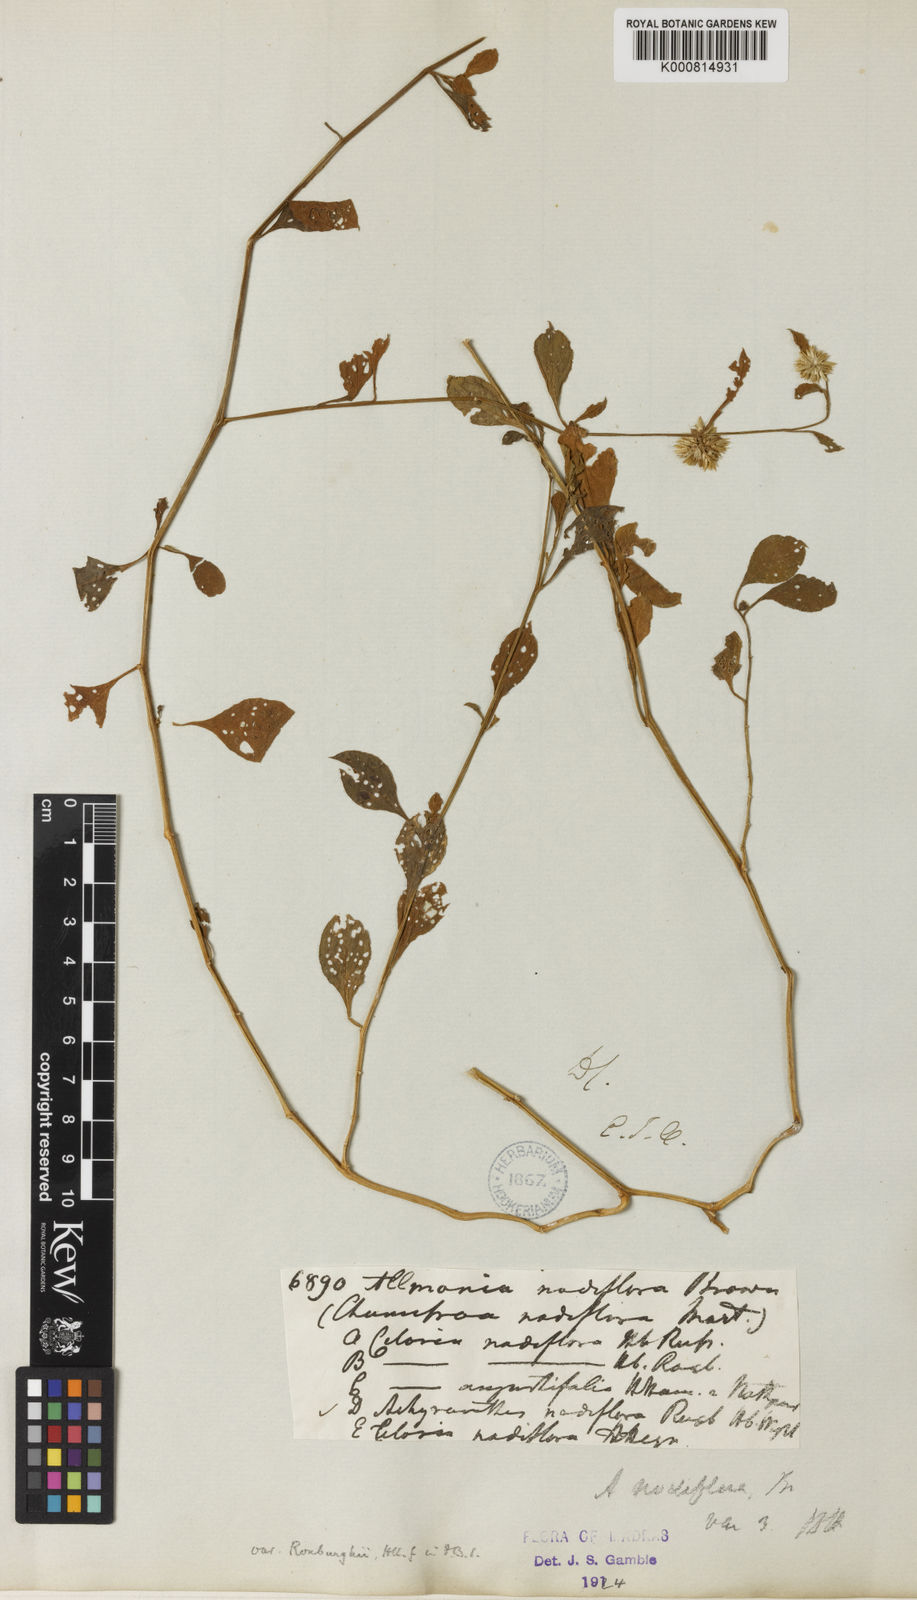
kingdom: Plantae
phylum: Tracheophyta
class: Magnoliopsida
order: Caryophyllales
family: Amaranthaceae
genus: Allmania
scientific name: Allmania nodiflora
